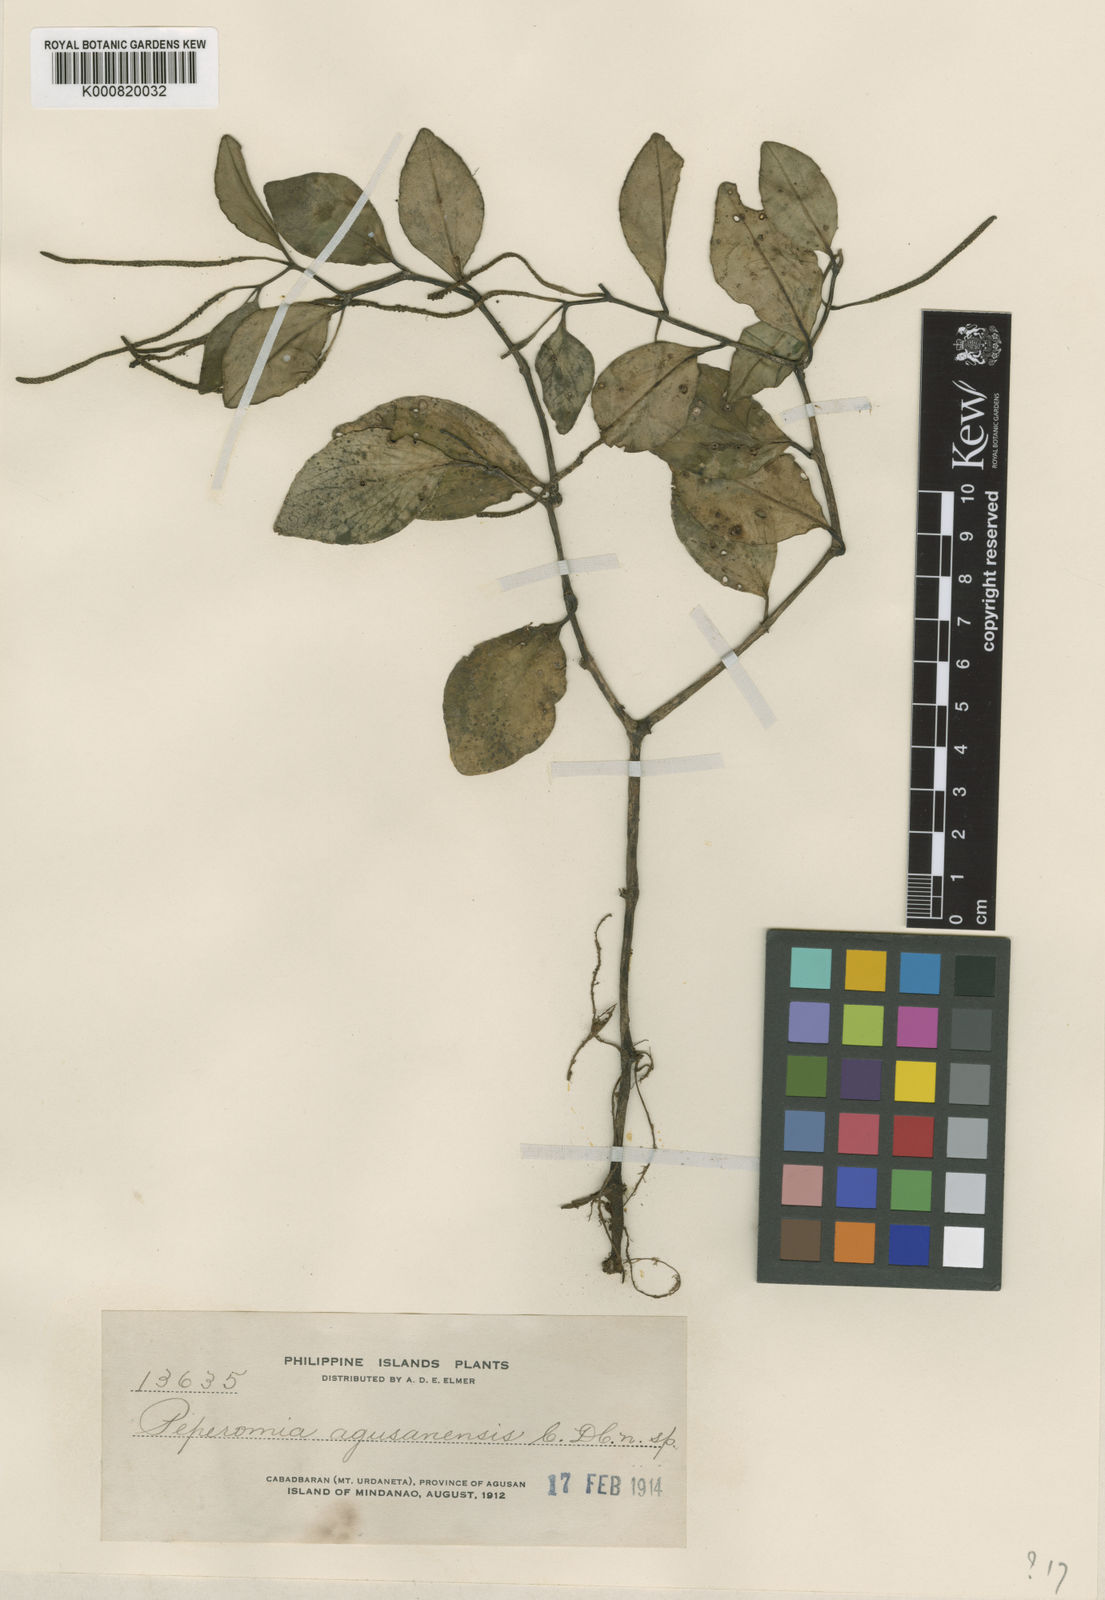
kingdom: Plantae
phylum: Tracheophyta
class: Magnoliopsida
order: Piperales
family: Piperaceae
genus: Piper
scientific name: Piper agusanense
